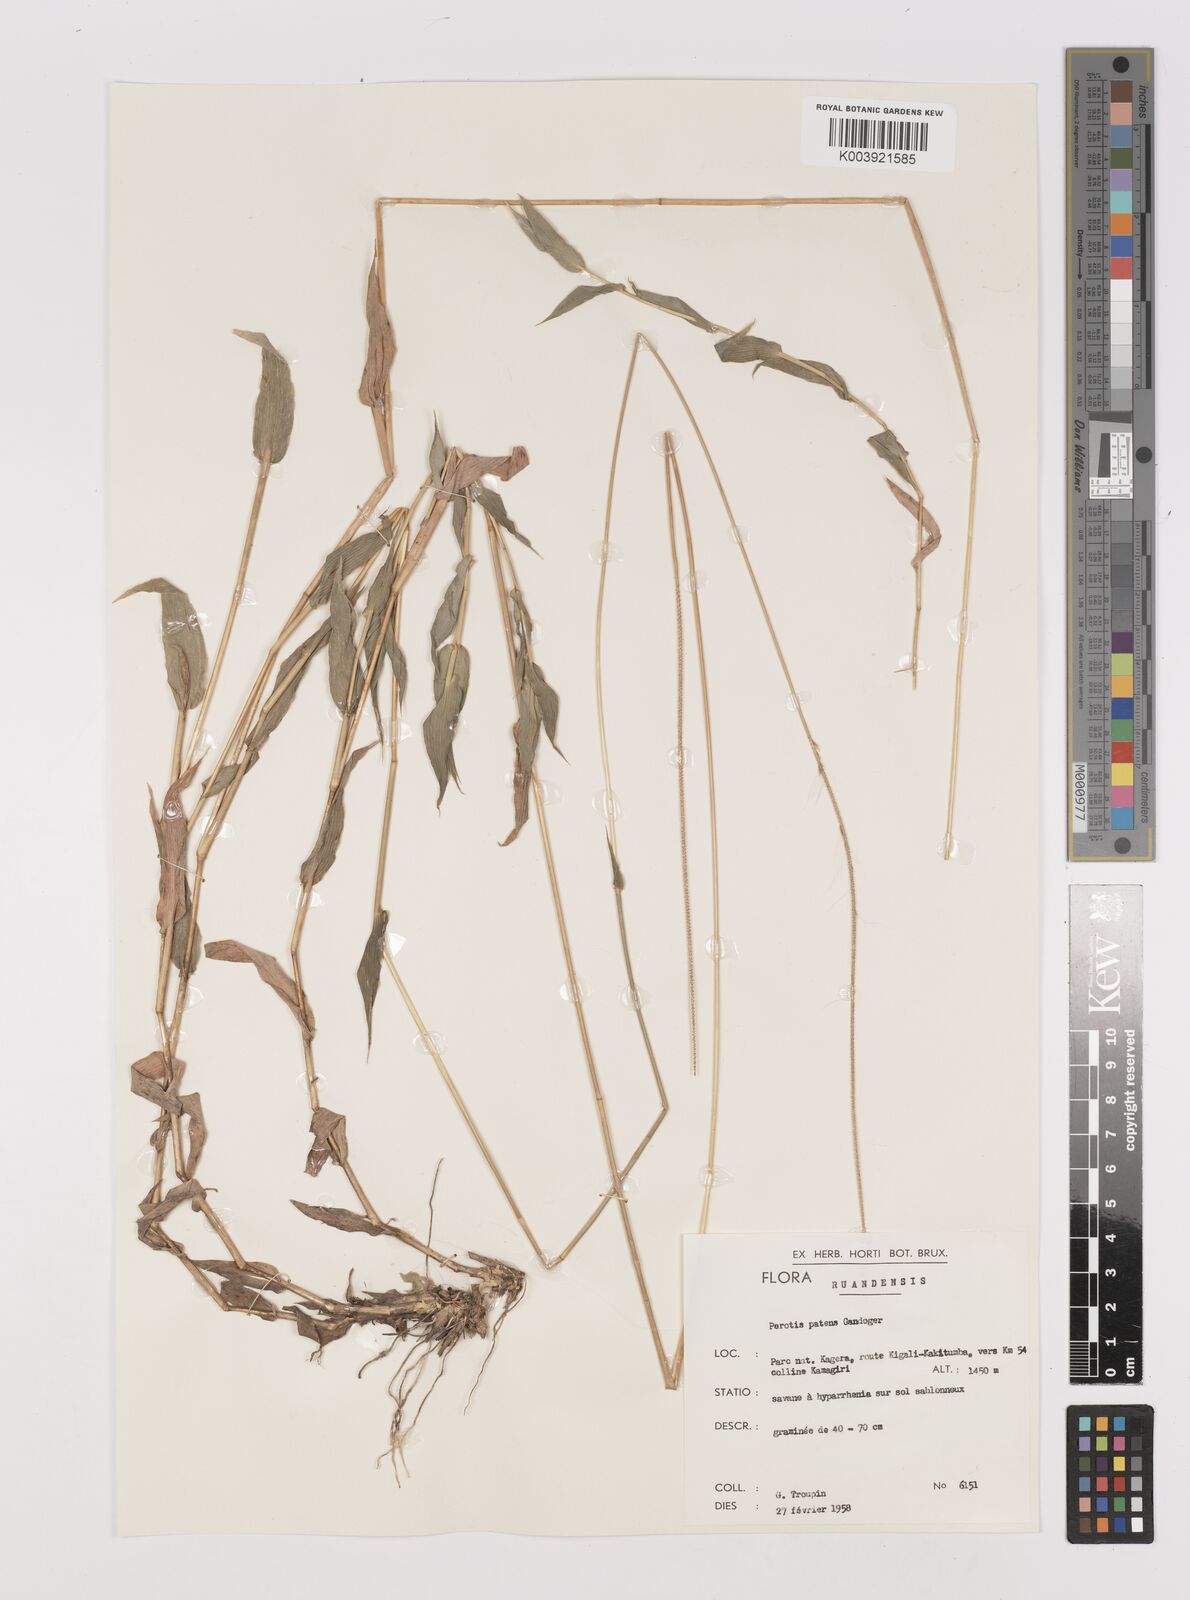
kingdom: Plantae
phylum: Tracheophyta
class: Liliopsida
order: Poales
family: Poaceae
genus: Perotis
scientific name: Perotis patens
